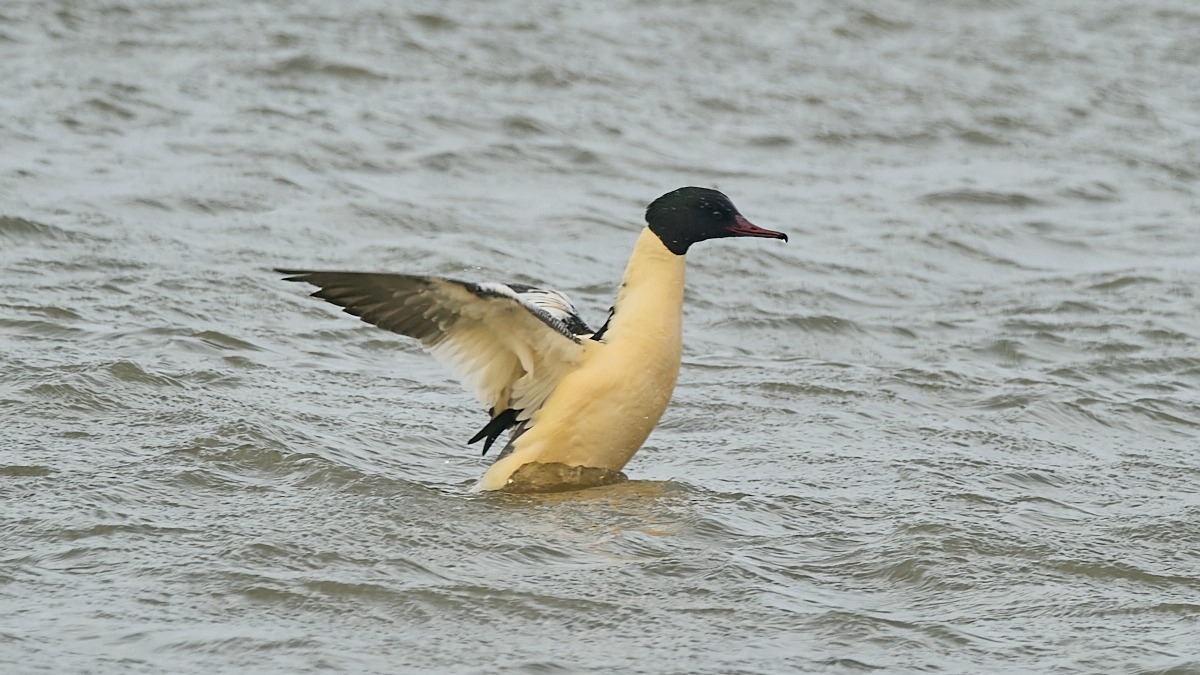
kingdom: Animalia
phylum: Chordata
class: Aves
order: Anseriformes
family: Anatidae
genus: Mergus
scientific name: Mergus merganser
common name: Stor skallesluger
